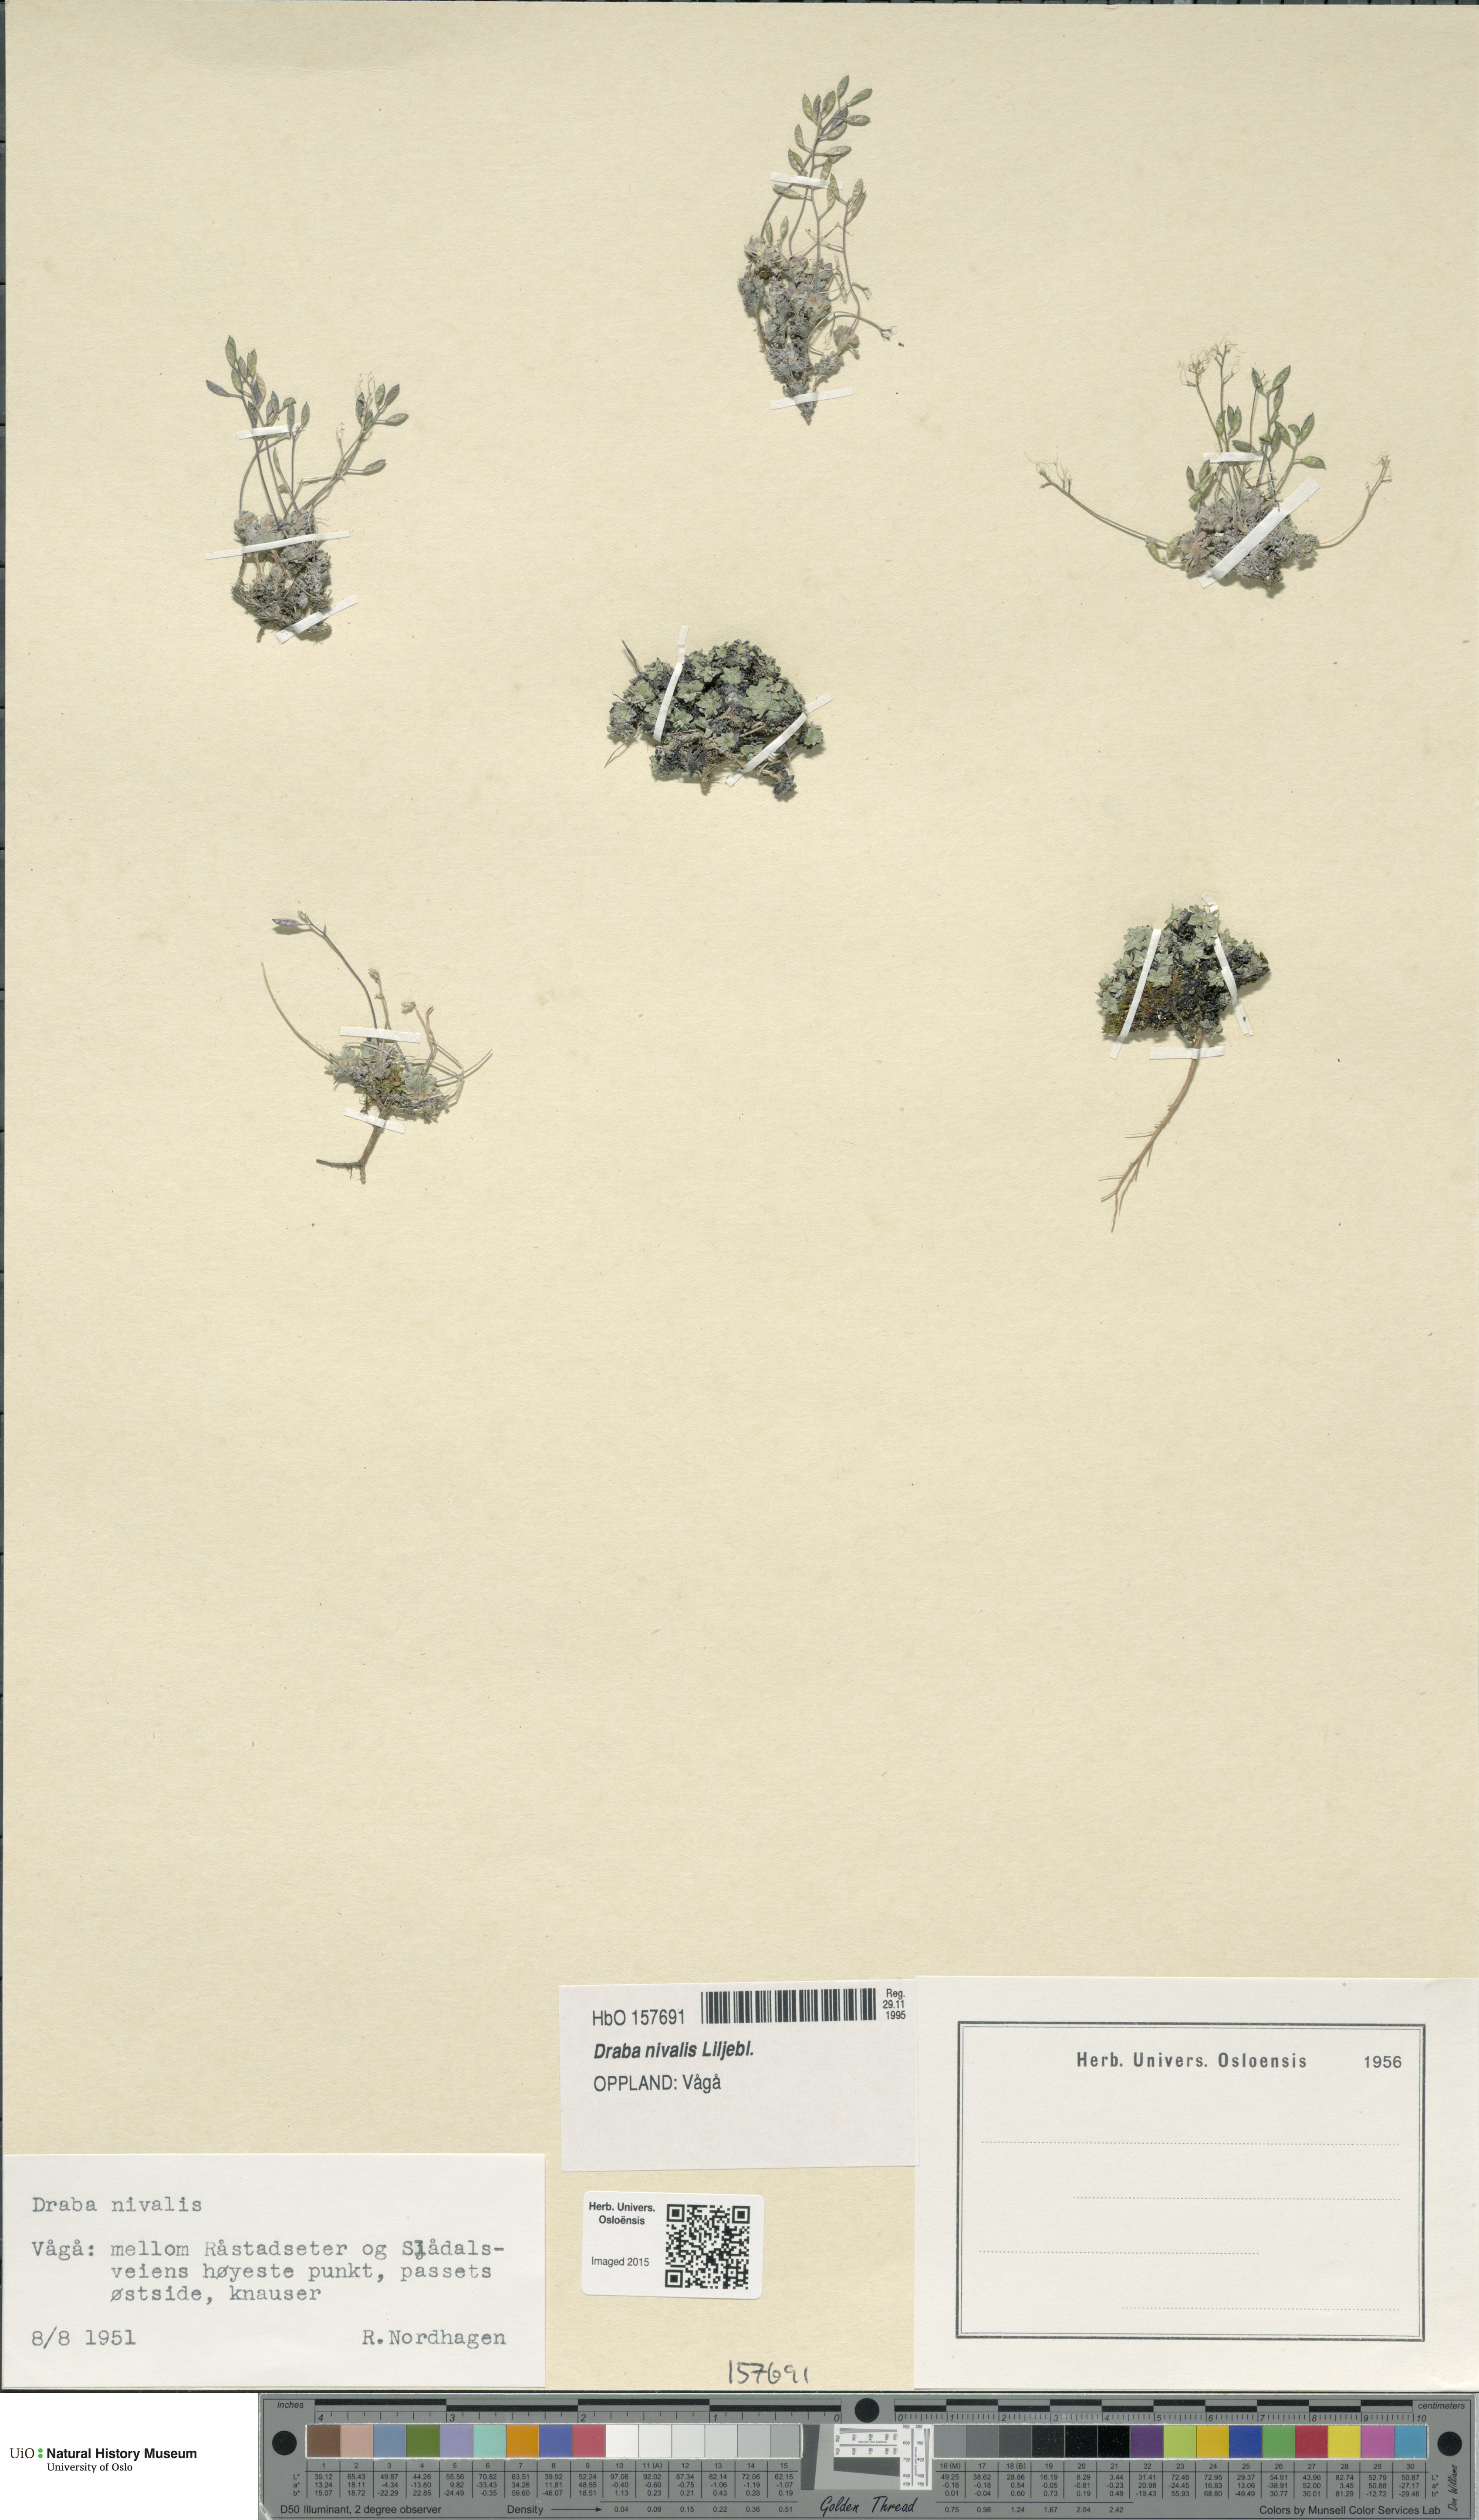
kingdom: Plantae
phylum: Tracheophyta
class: Magnoliopsida
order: Brassicales
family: Brassicaceae
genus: Draba
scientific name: Draba nivalis
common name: Snow draba
